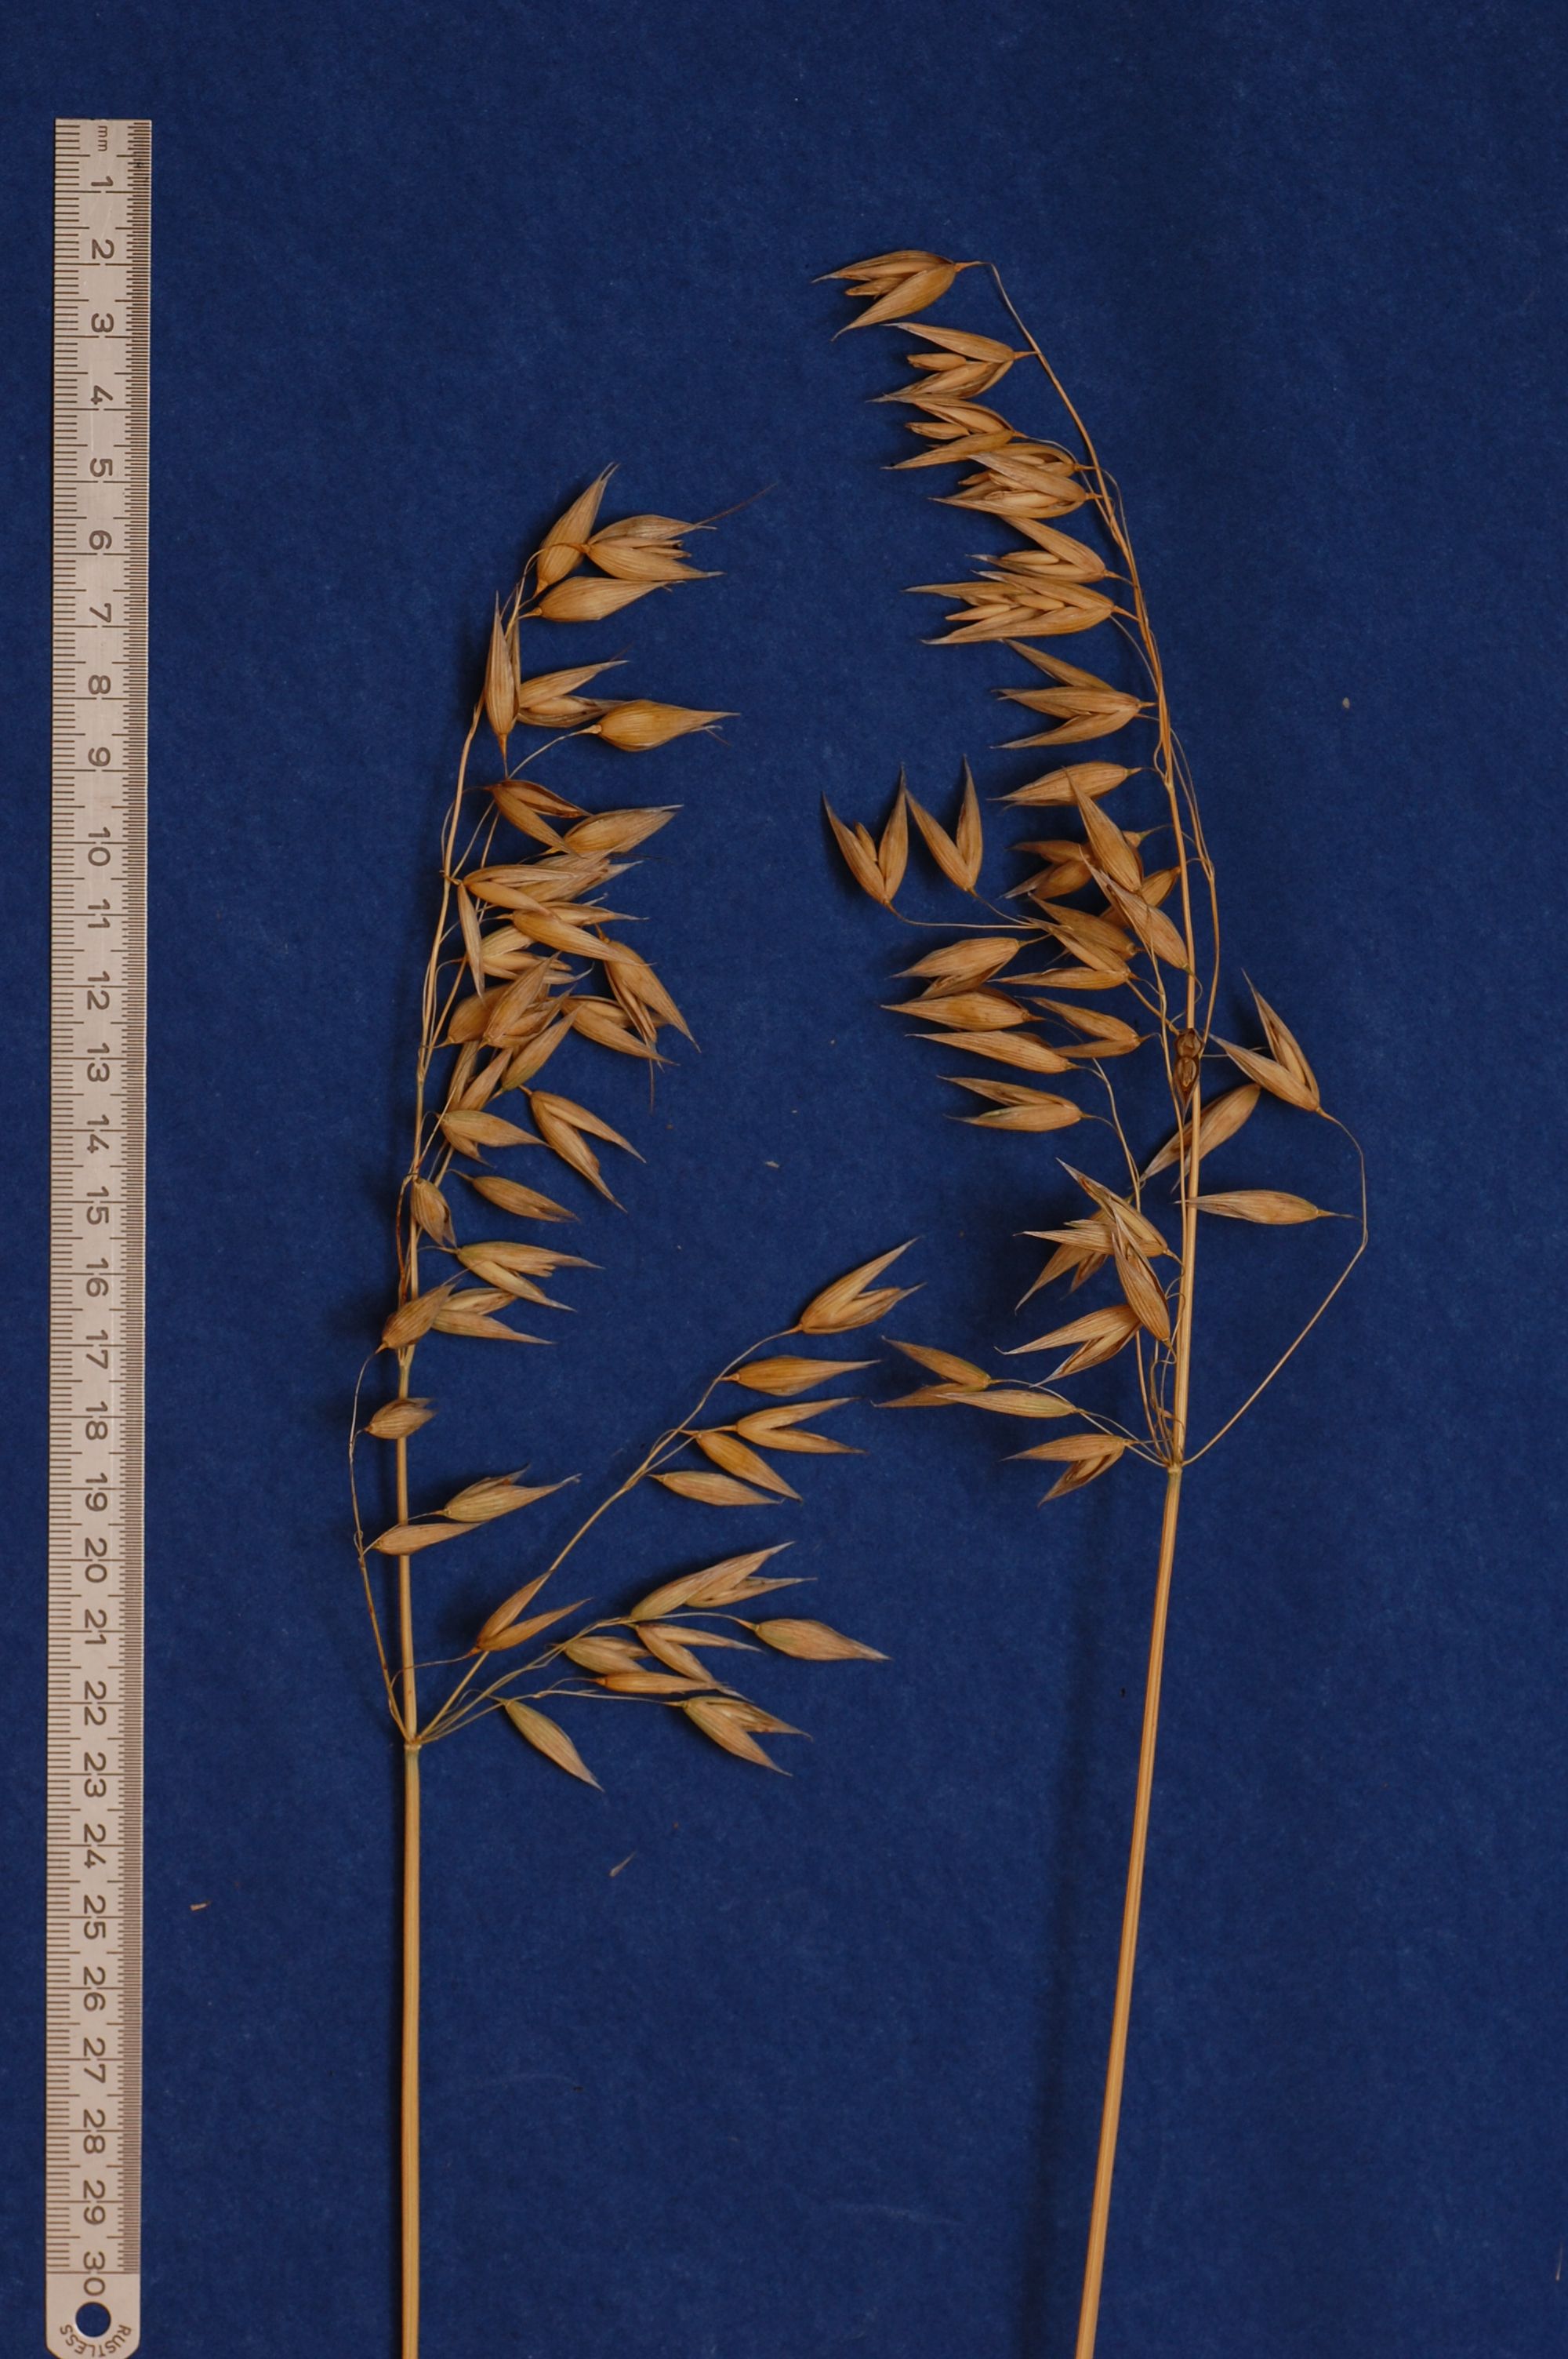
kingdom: Plantae
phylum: Tracheophyta
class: Liliopsida
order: Poales
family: Poaceae
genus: Avena
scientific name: Avena sativa
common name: Oat
